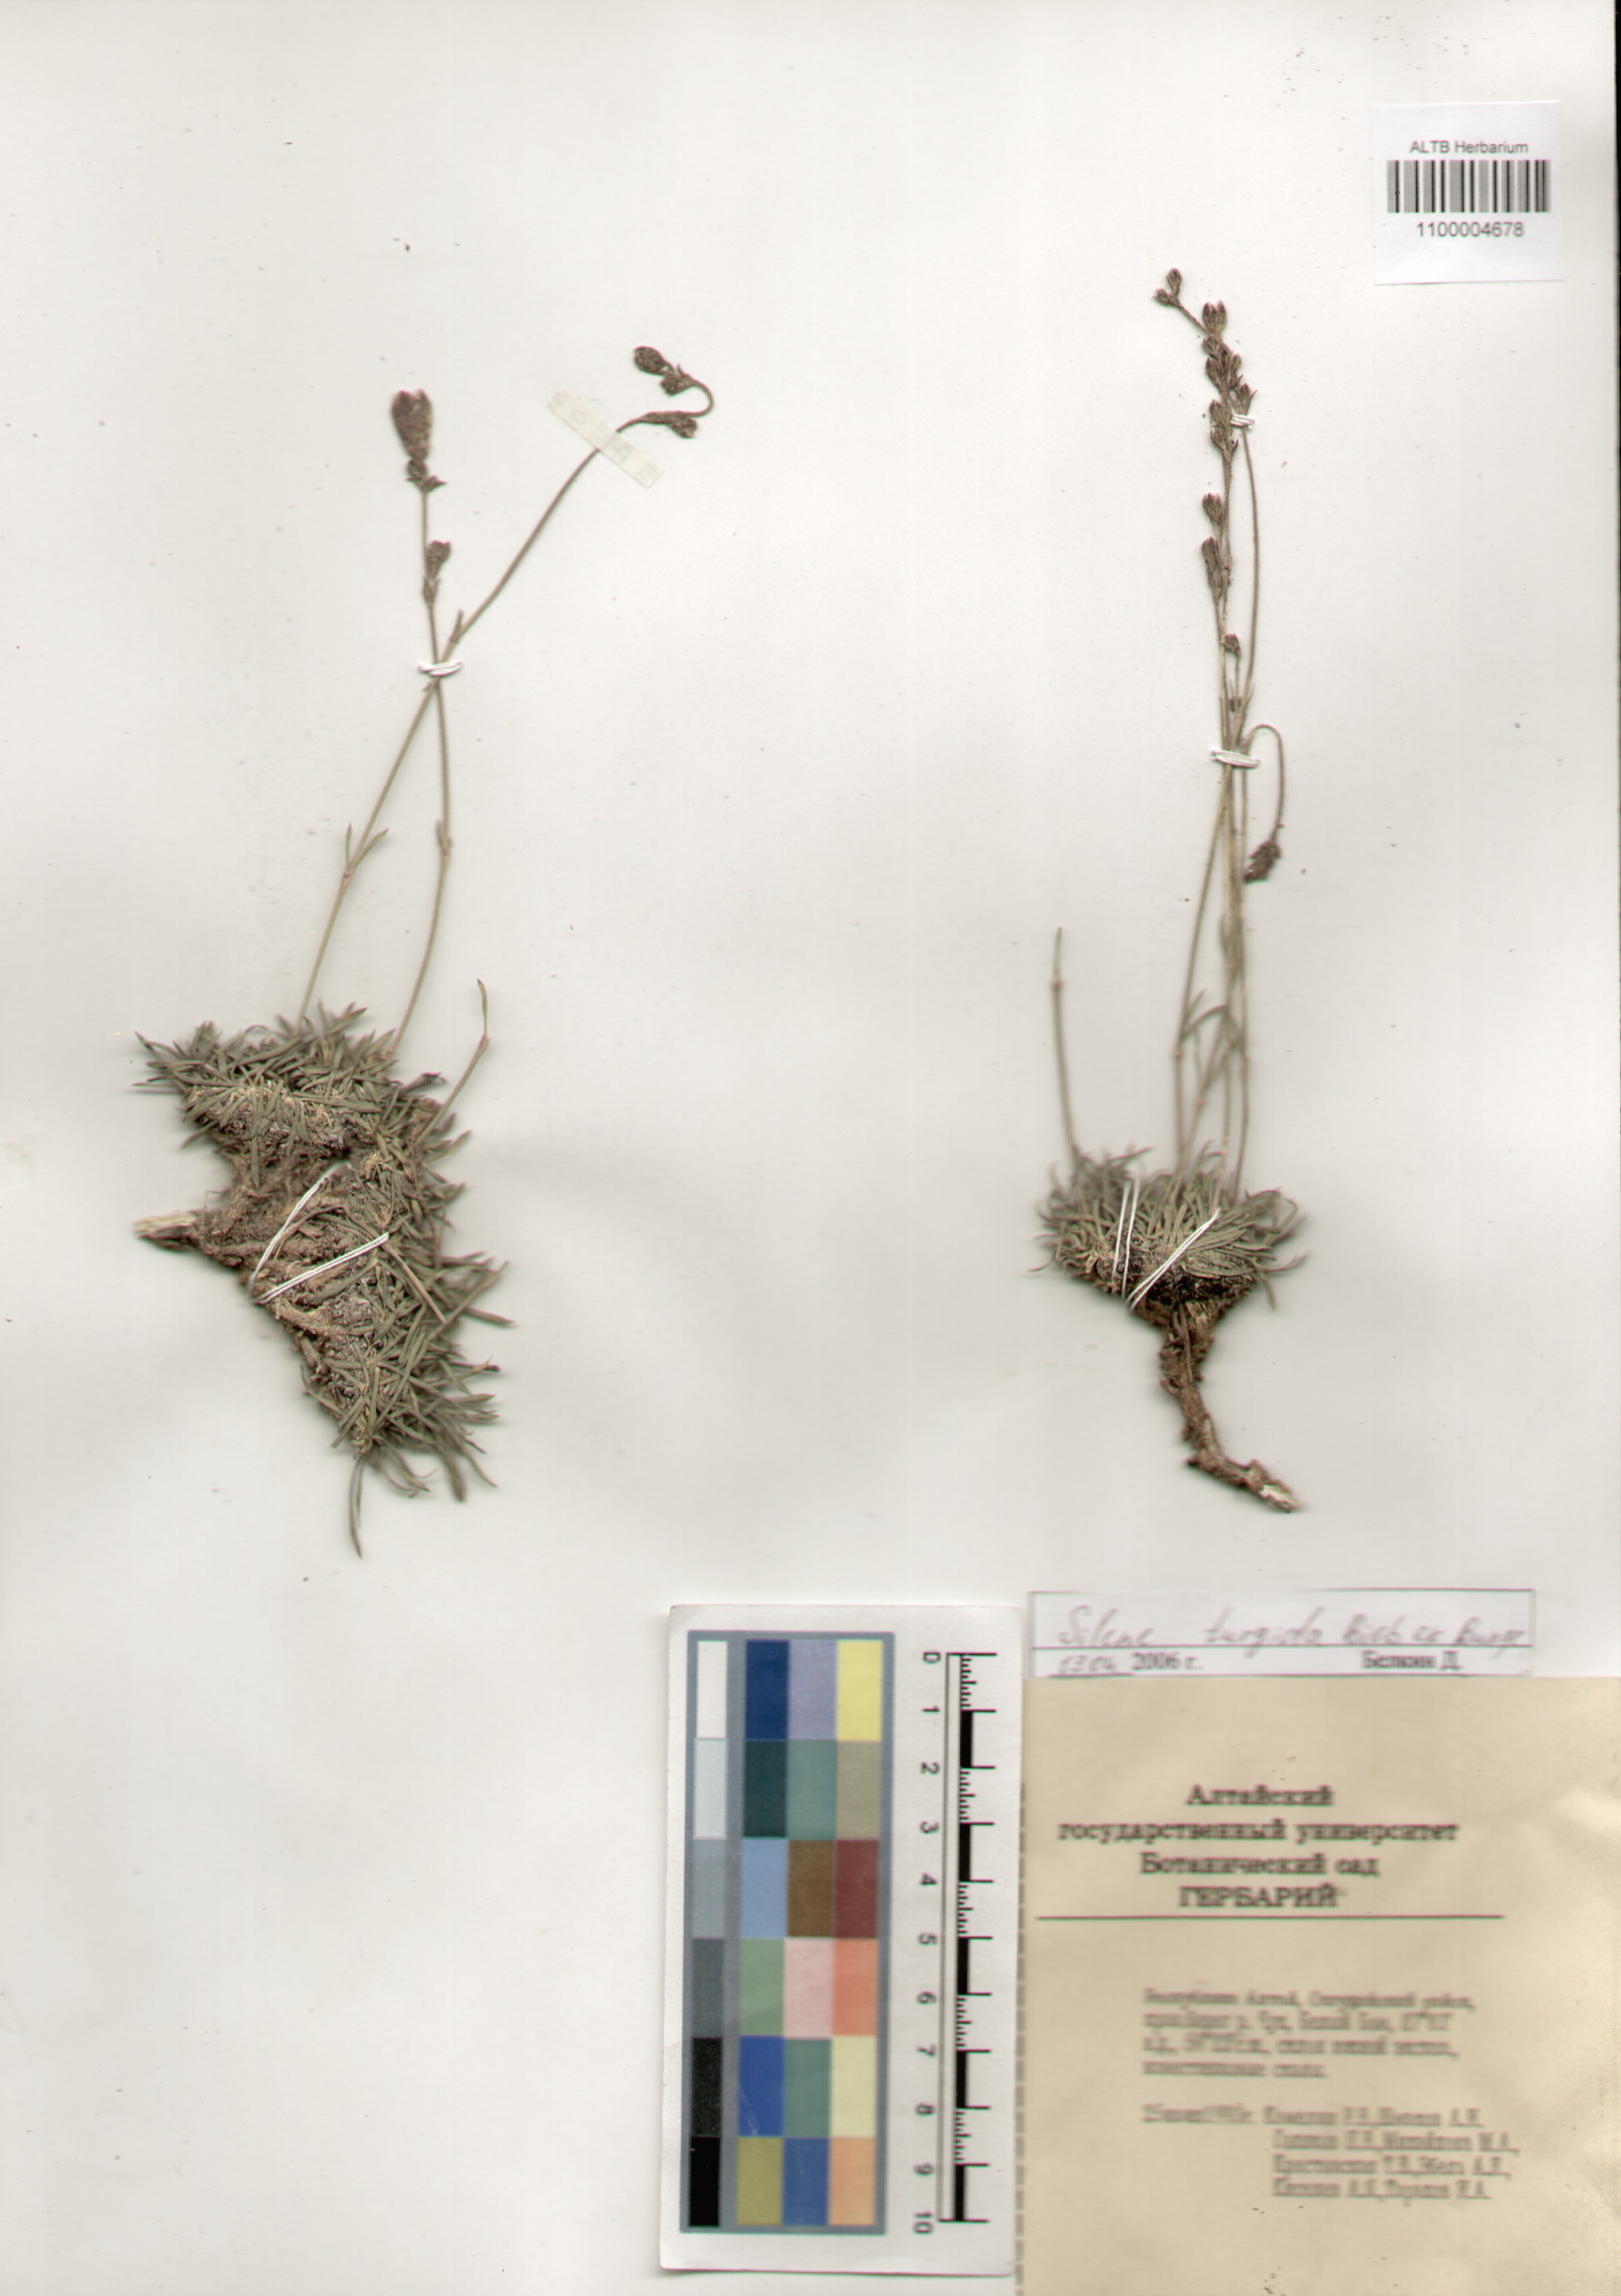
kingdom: Plantae
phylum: Tracheophyta
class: Magnoliopsida
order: Caryophyllales
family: Caryophyllaceae
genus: Silene
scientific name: Silene turgida
